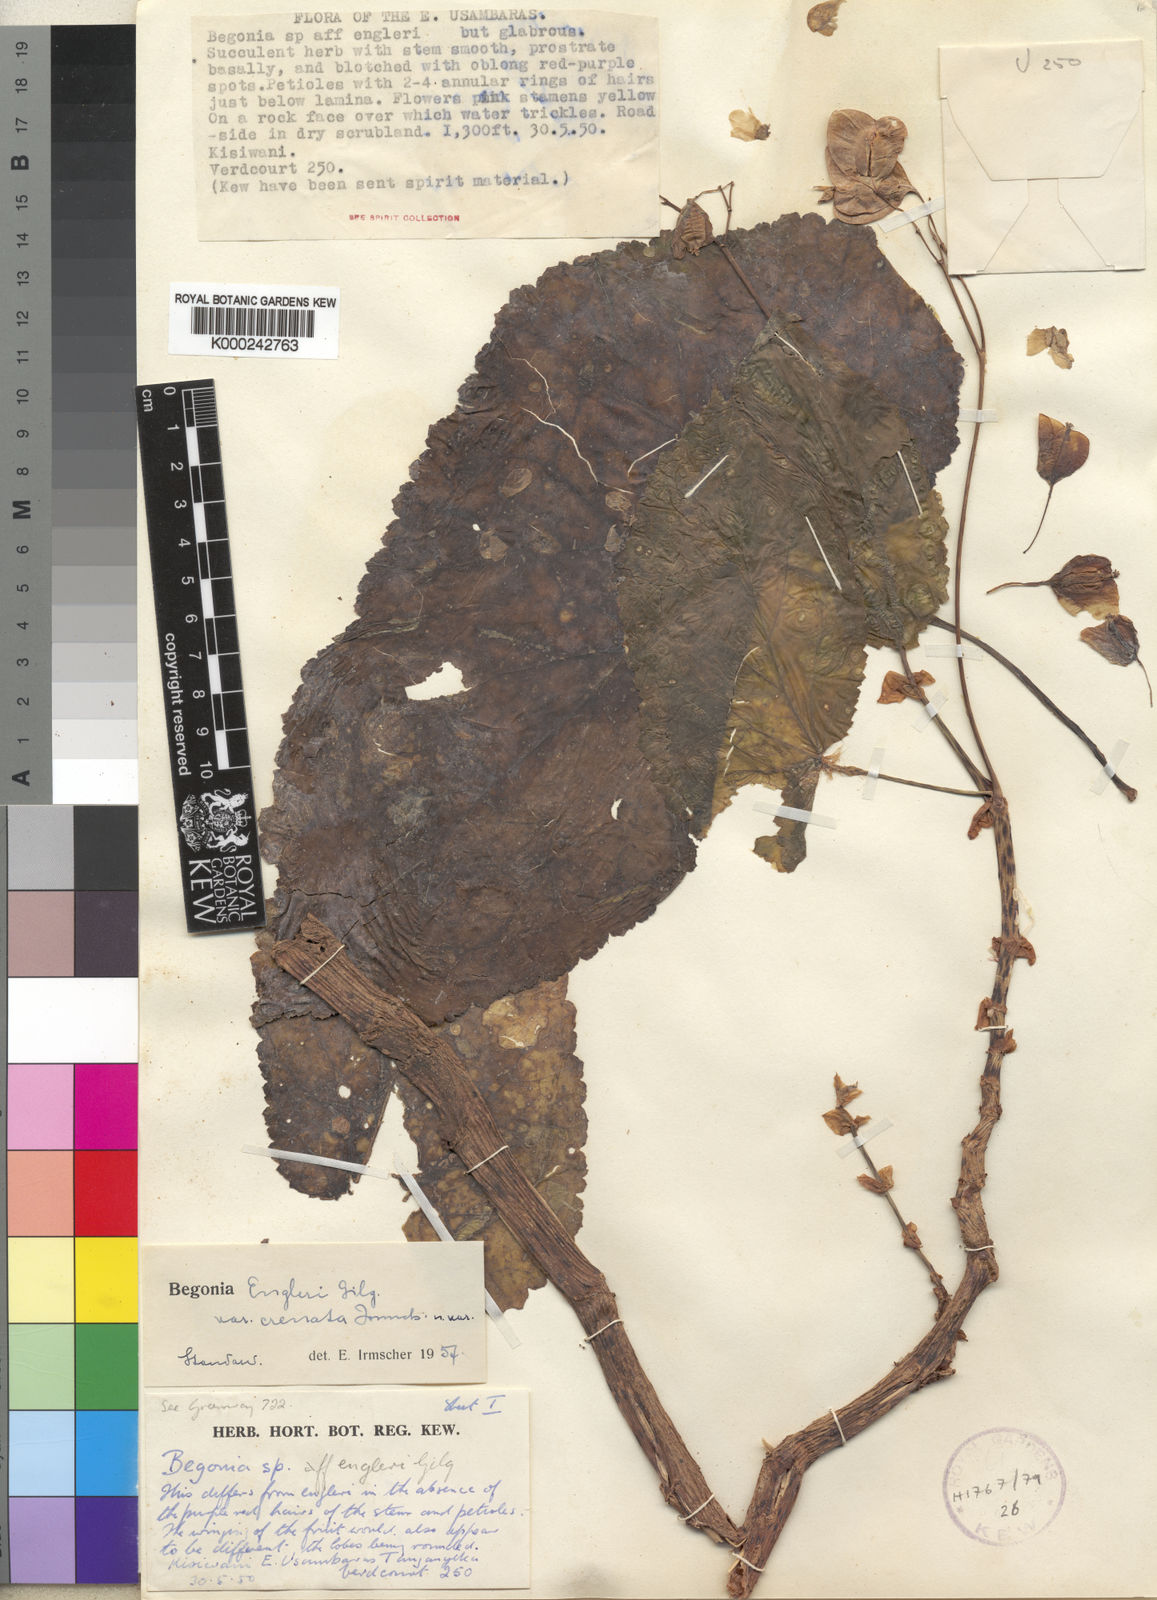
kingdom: Plantae
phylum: Tracheophyta
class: Magnoliopsida
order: Cucurbitales
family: Begoniaceae
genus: Begonia
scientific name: Begonia engleri
